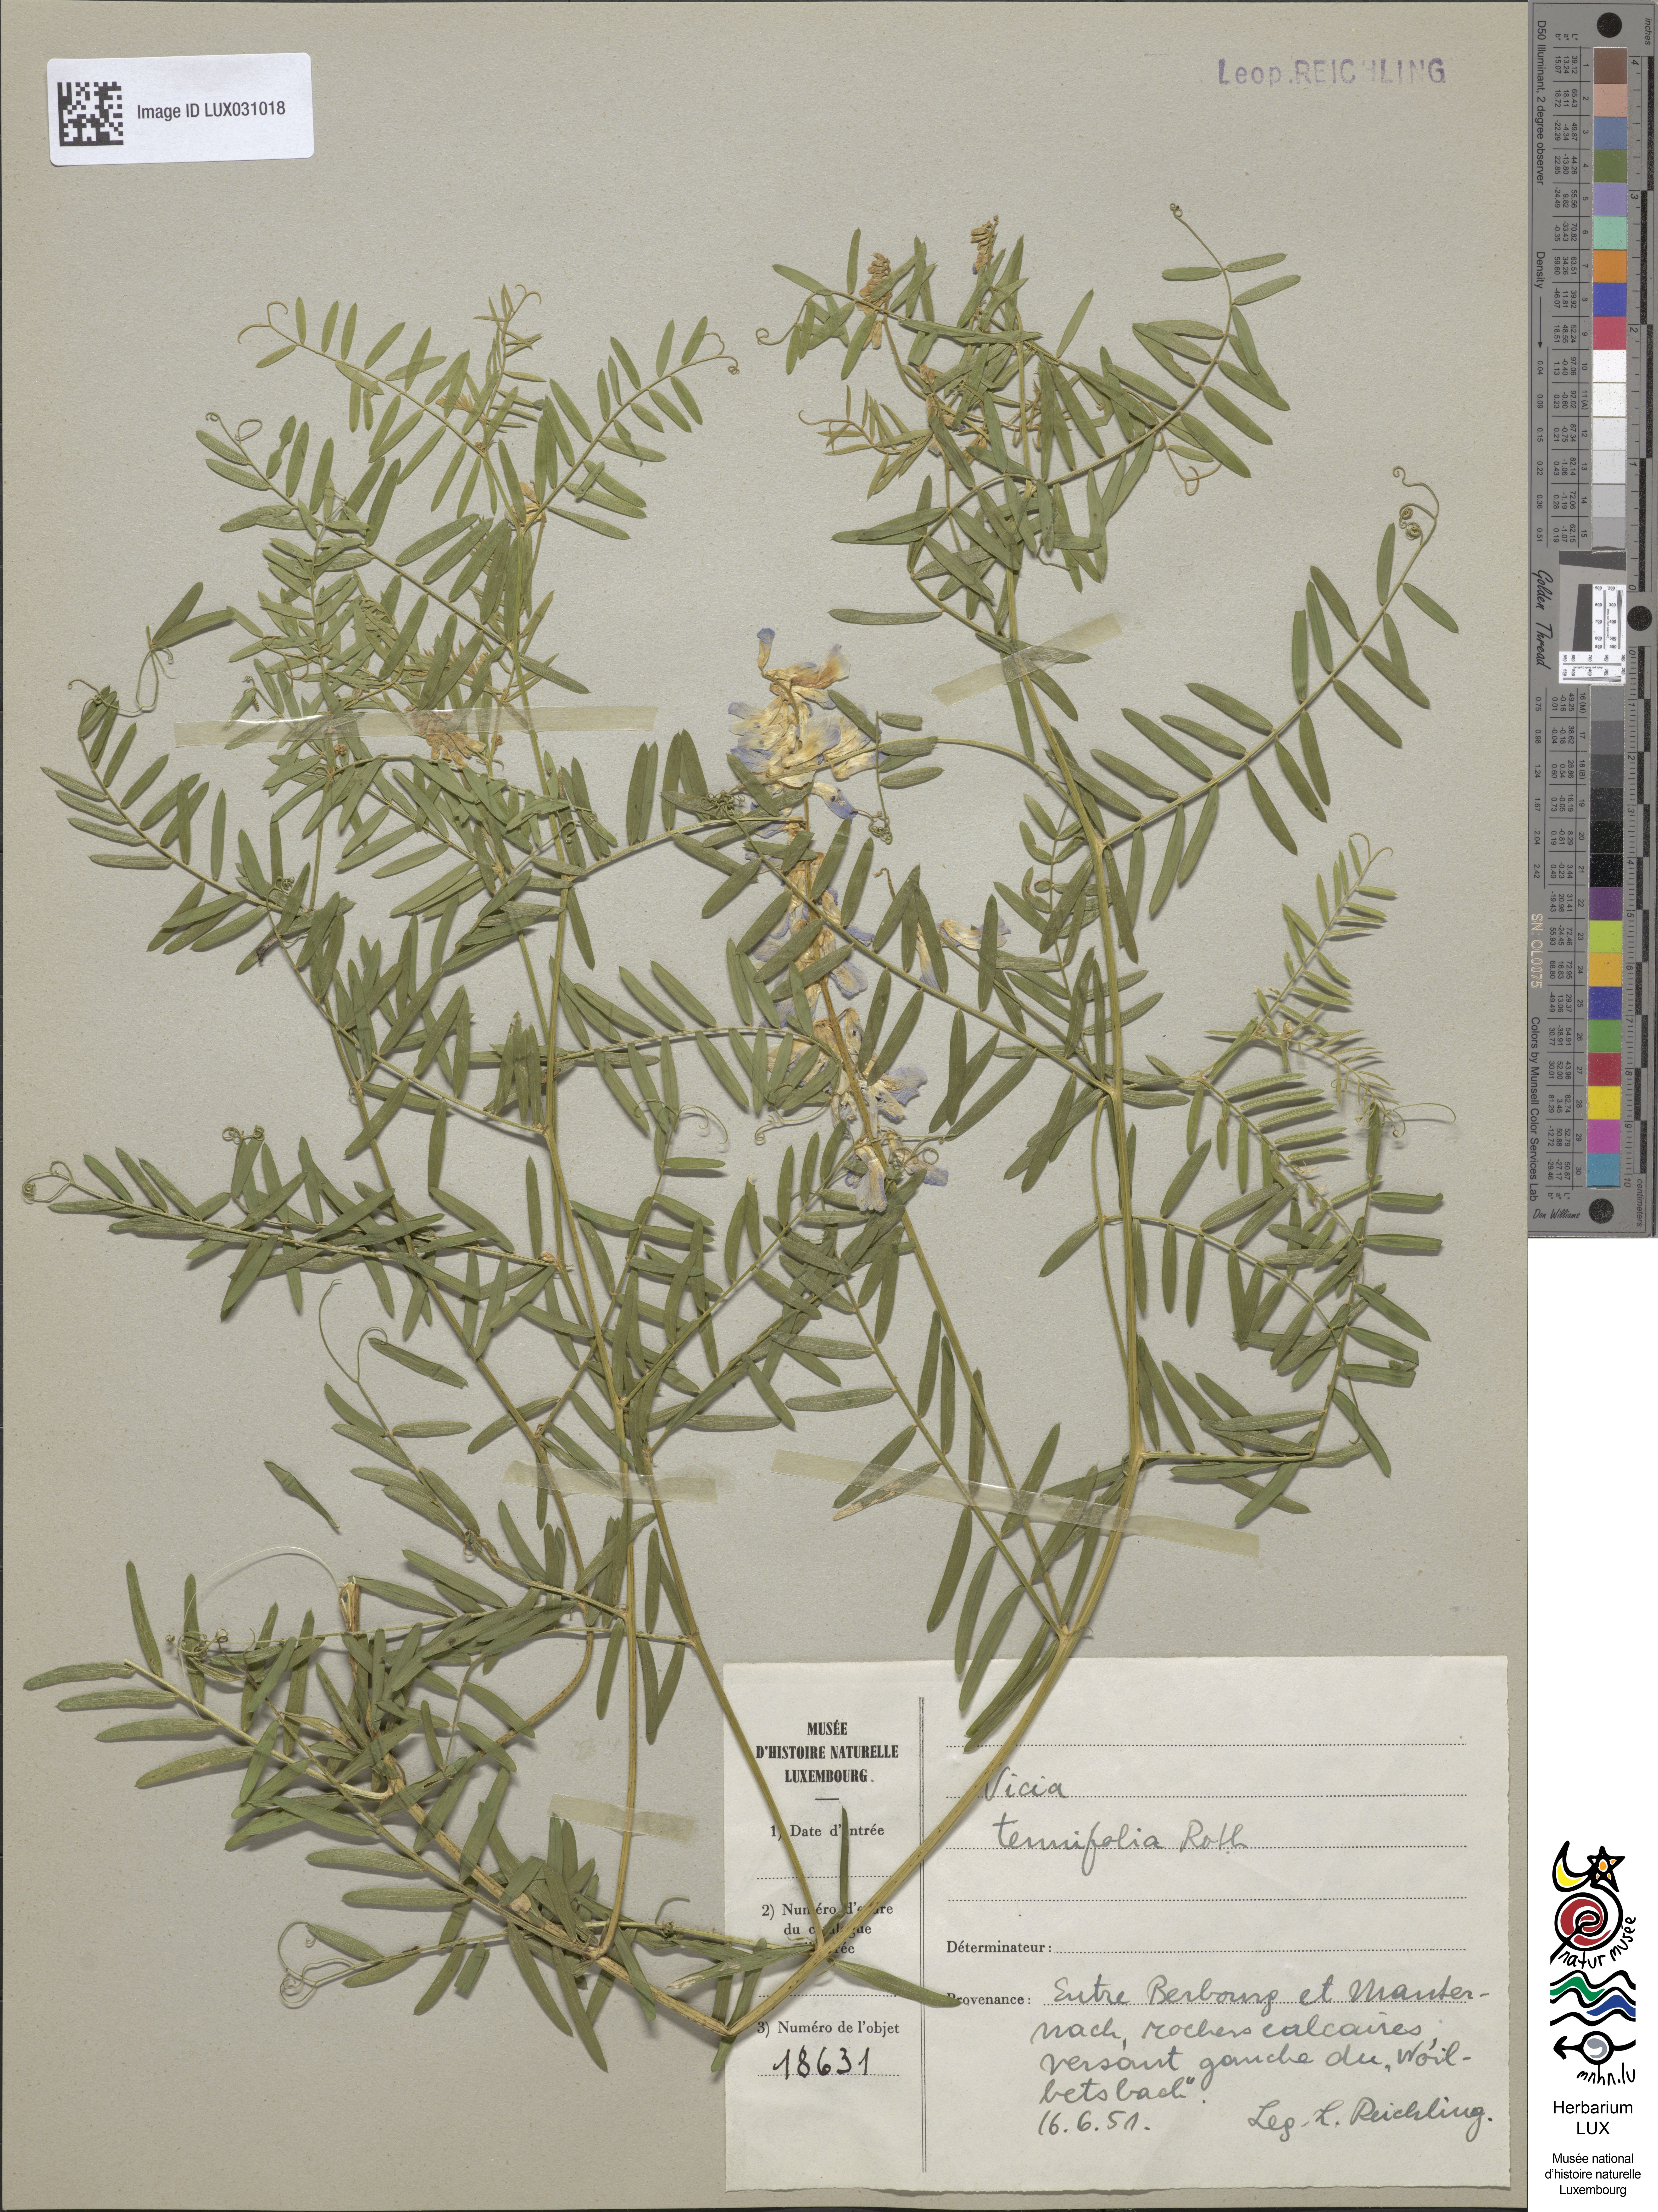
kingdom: Plantae
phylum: Tracheophyta
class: Magnoliopsida
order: Fabales
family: Fabaceae
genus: Vicia
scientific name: Vicia tenuifolia
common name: Fine-leaved vetch
